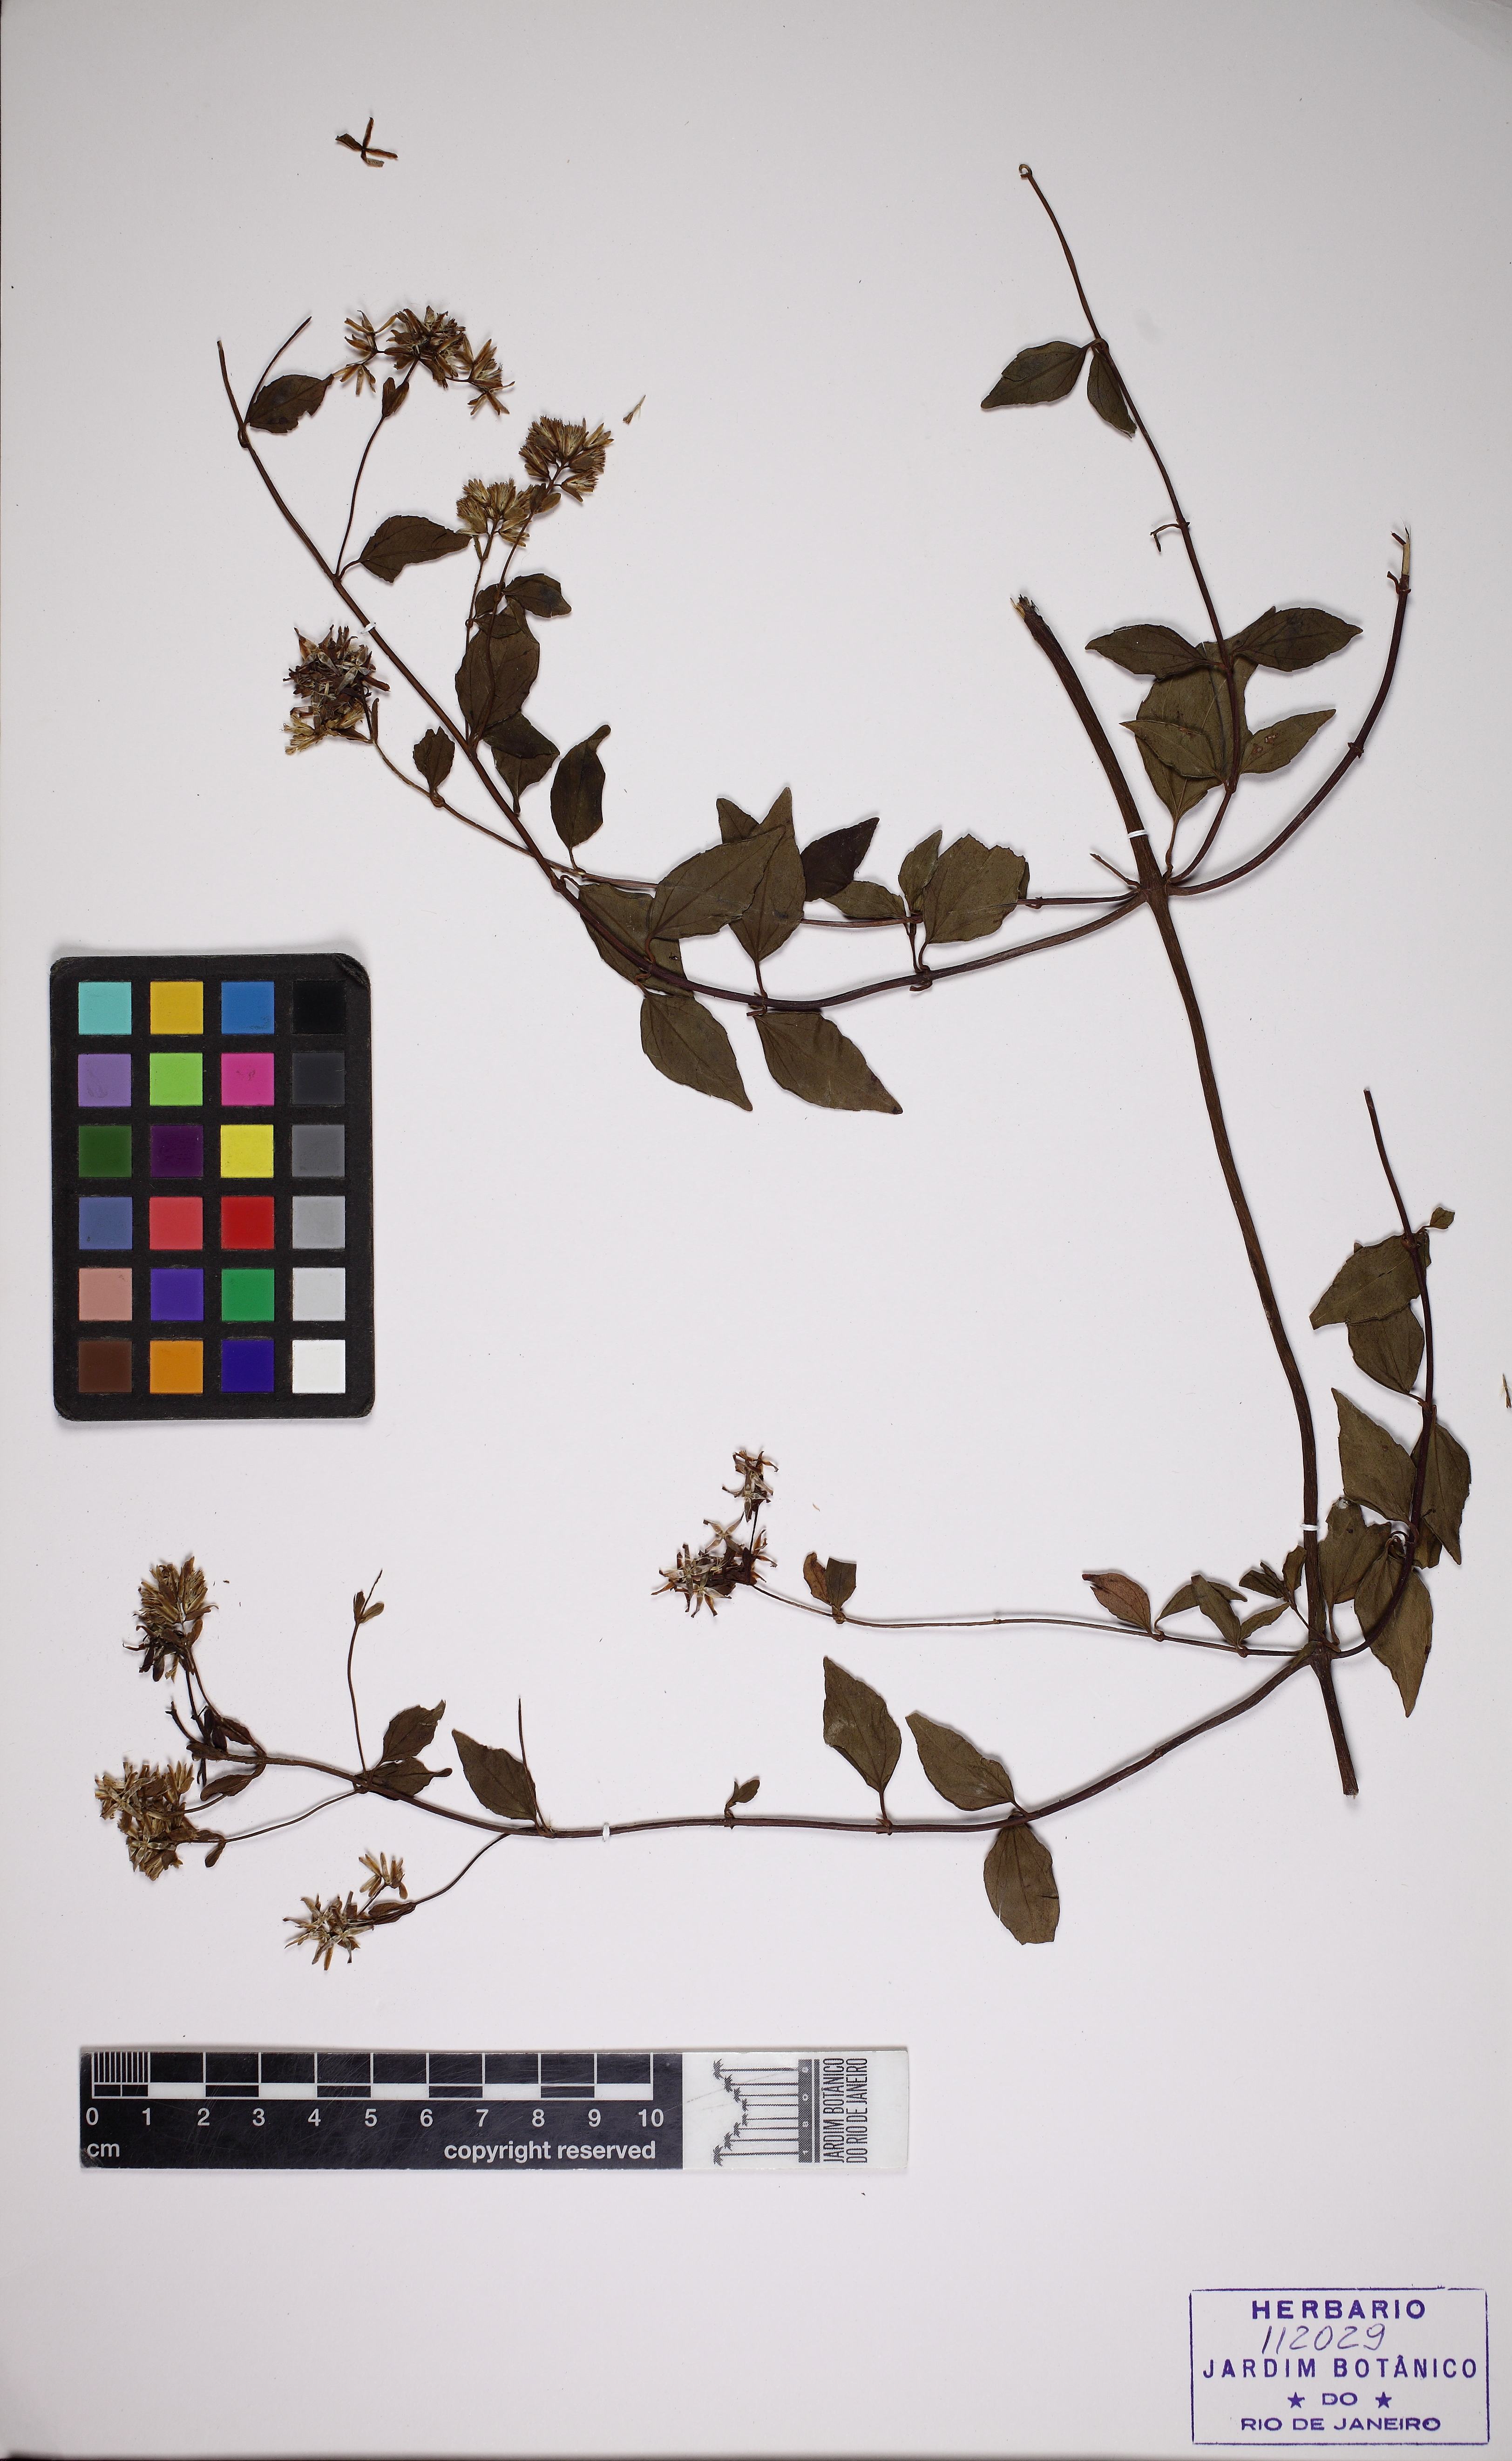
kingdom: Plantae
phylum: Tracheophyta
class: Magnoliopsida
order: Asterales
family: Asteraceae
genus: Mikania
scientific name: Mikania smaragdina
